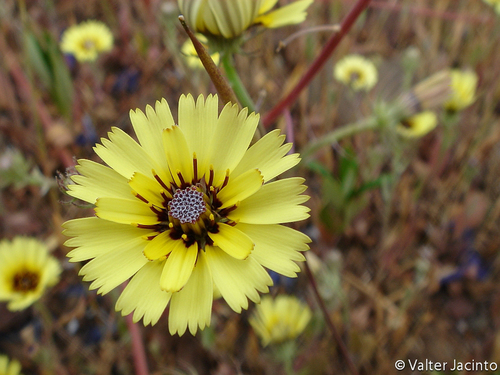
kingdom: Plantae
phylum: Tracheophyta
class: Magnoliopsida
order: Asterales
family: Asteraceae
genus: Tolpis
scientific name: Tolpis barbata
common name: Yellow hawkweed
